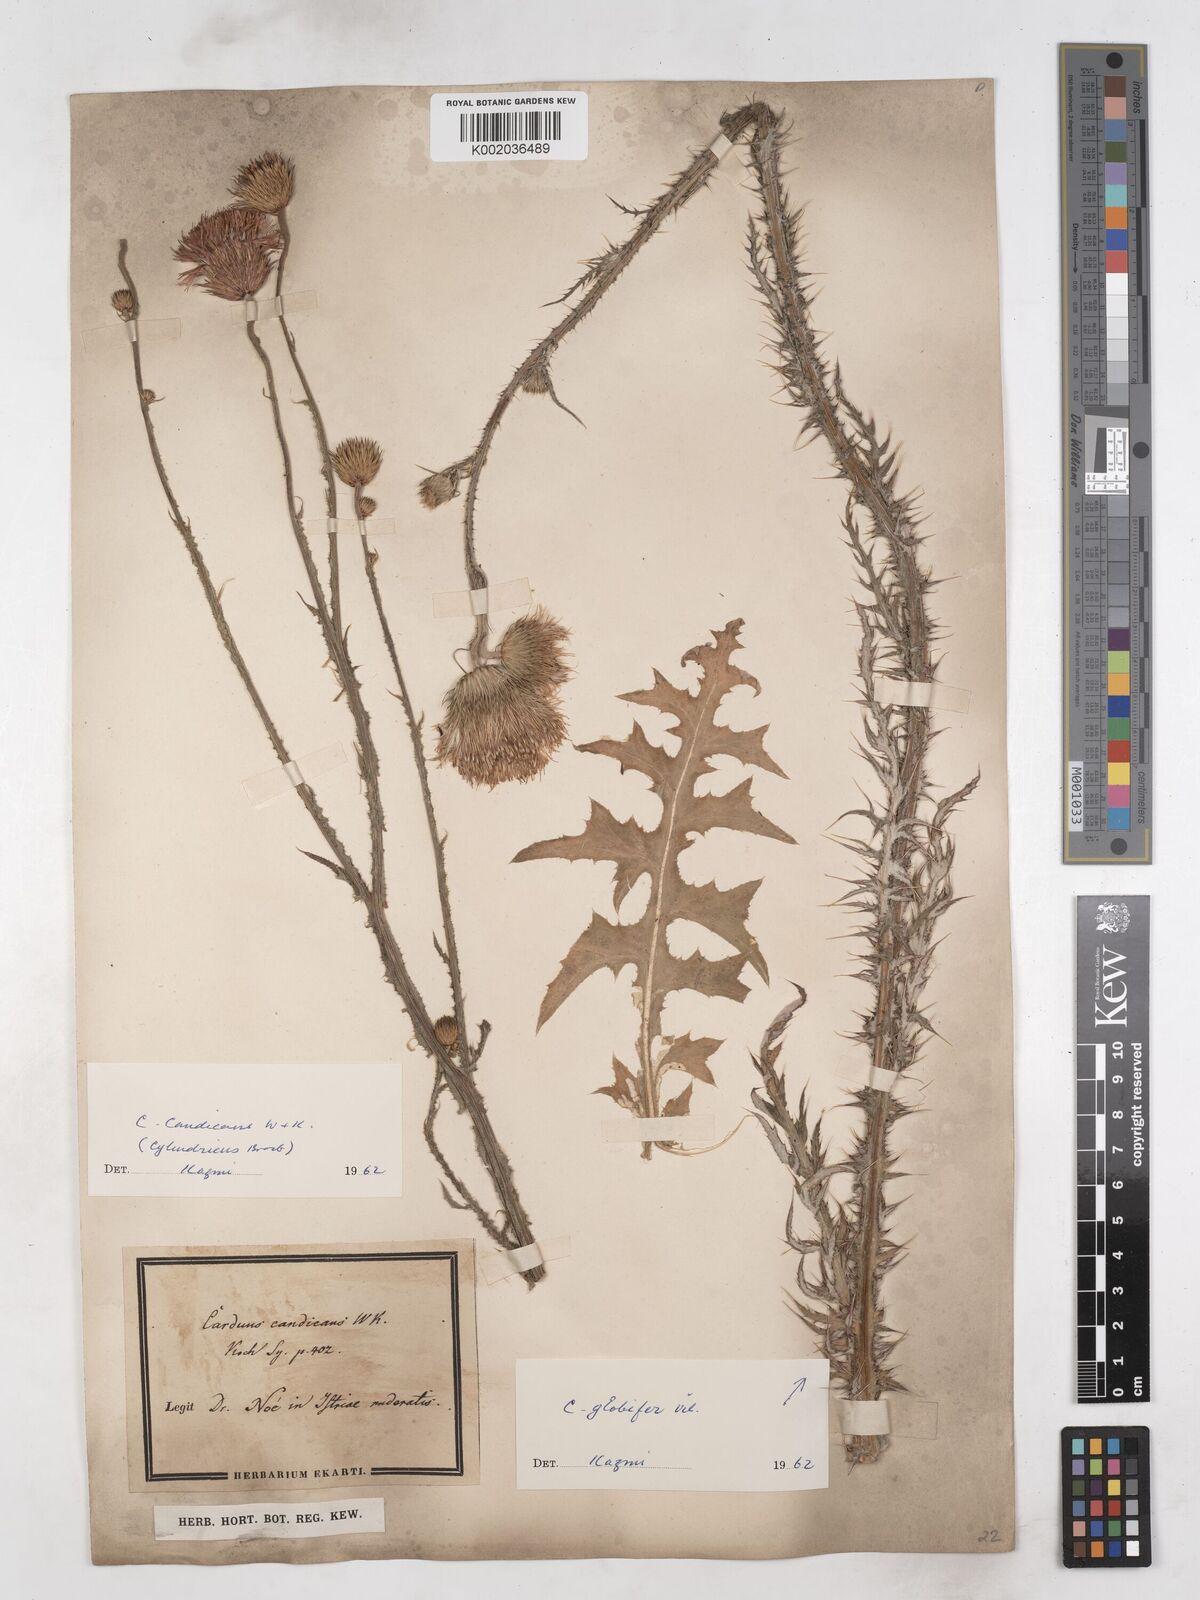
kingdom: Plantae
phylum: Tracheophyta
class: Magnoliopsida
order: Asterales
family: Asteraceae
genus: Carduus
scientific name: Carduus candicans
